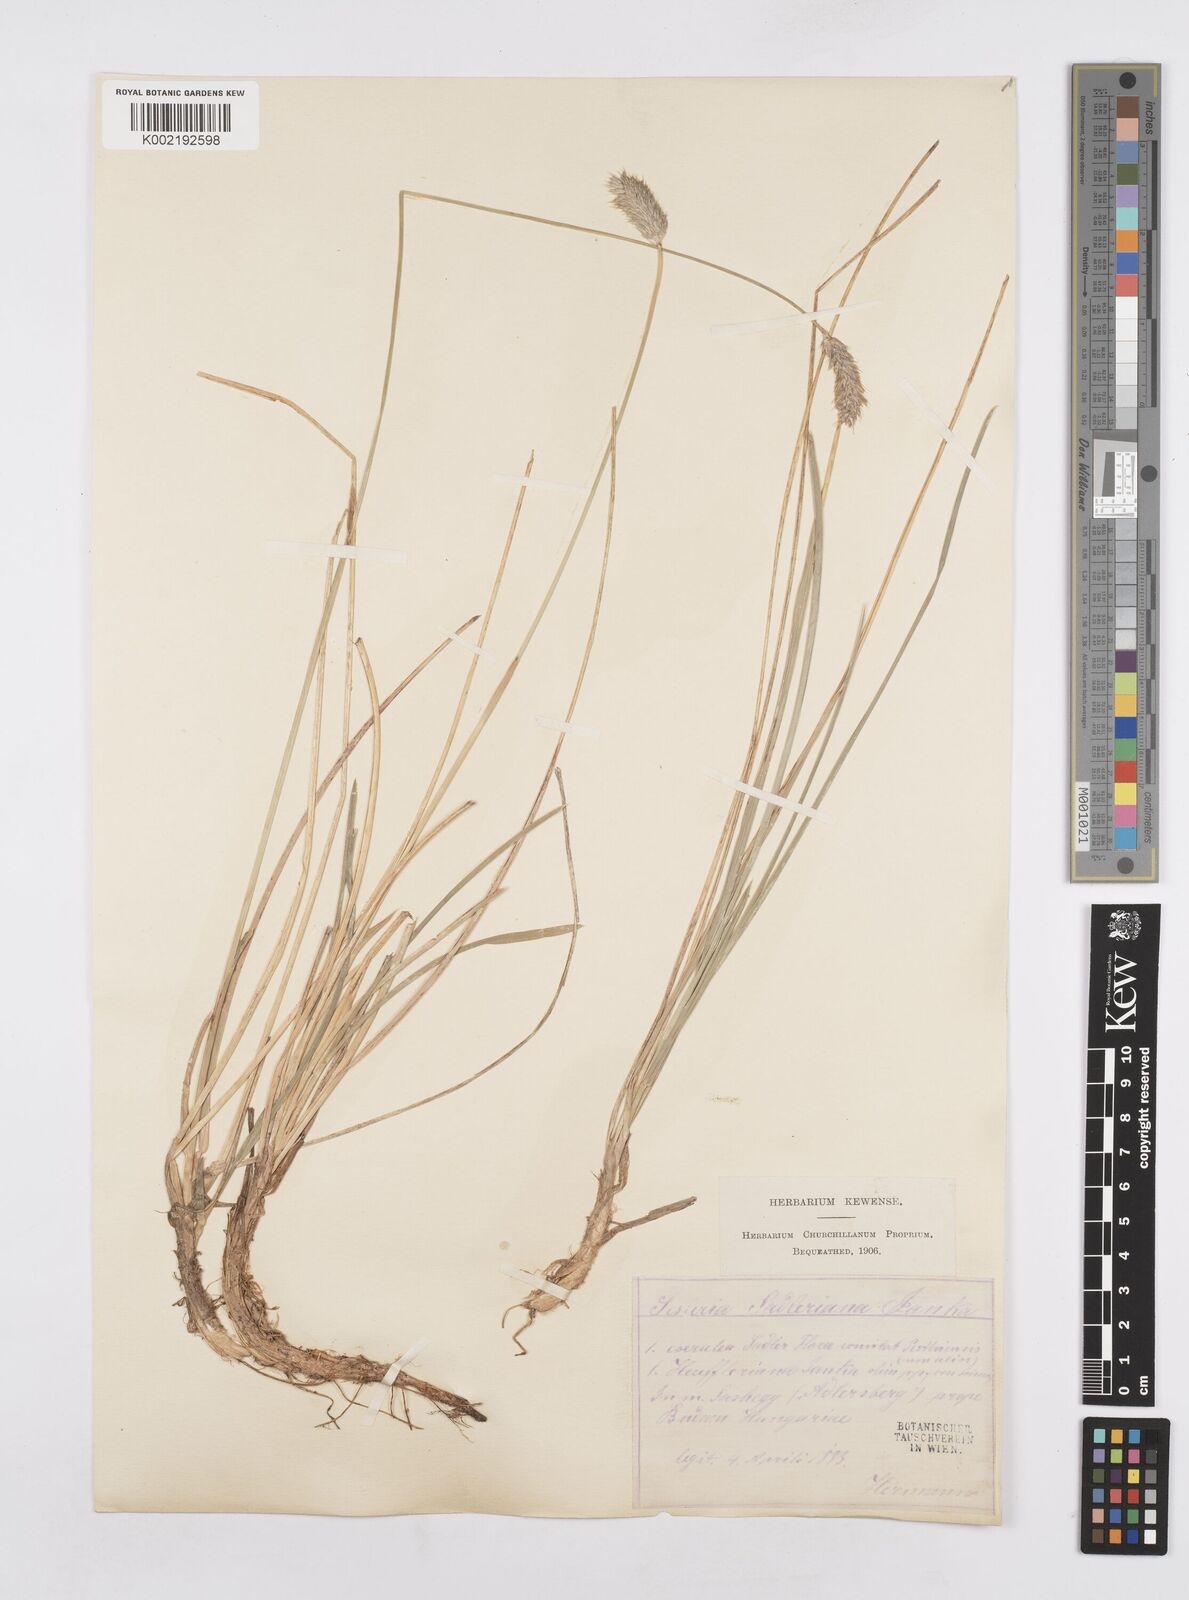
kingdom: Plantae
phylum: Tracheophyta
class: Liliopsida
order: Poales
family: Poaceae
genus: Sesleria
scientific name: Sesleria heufleriana
